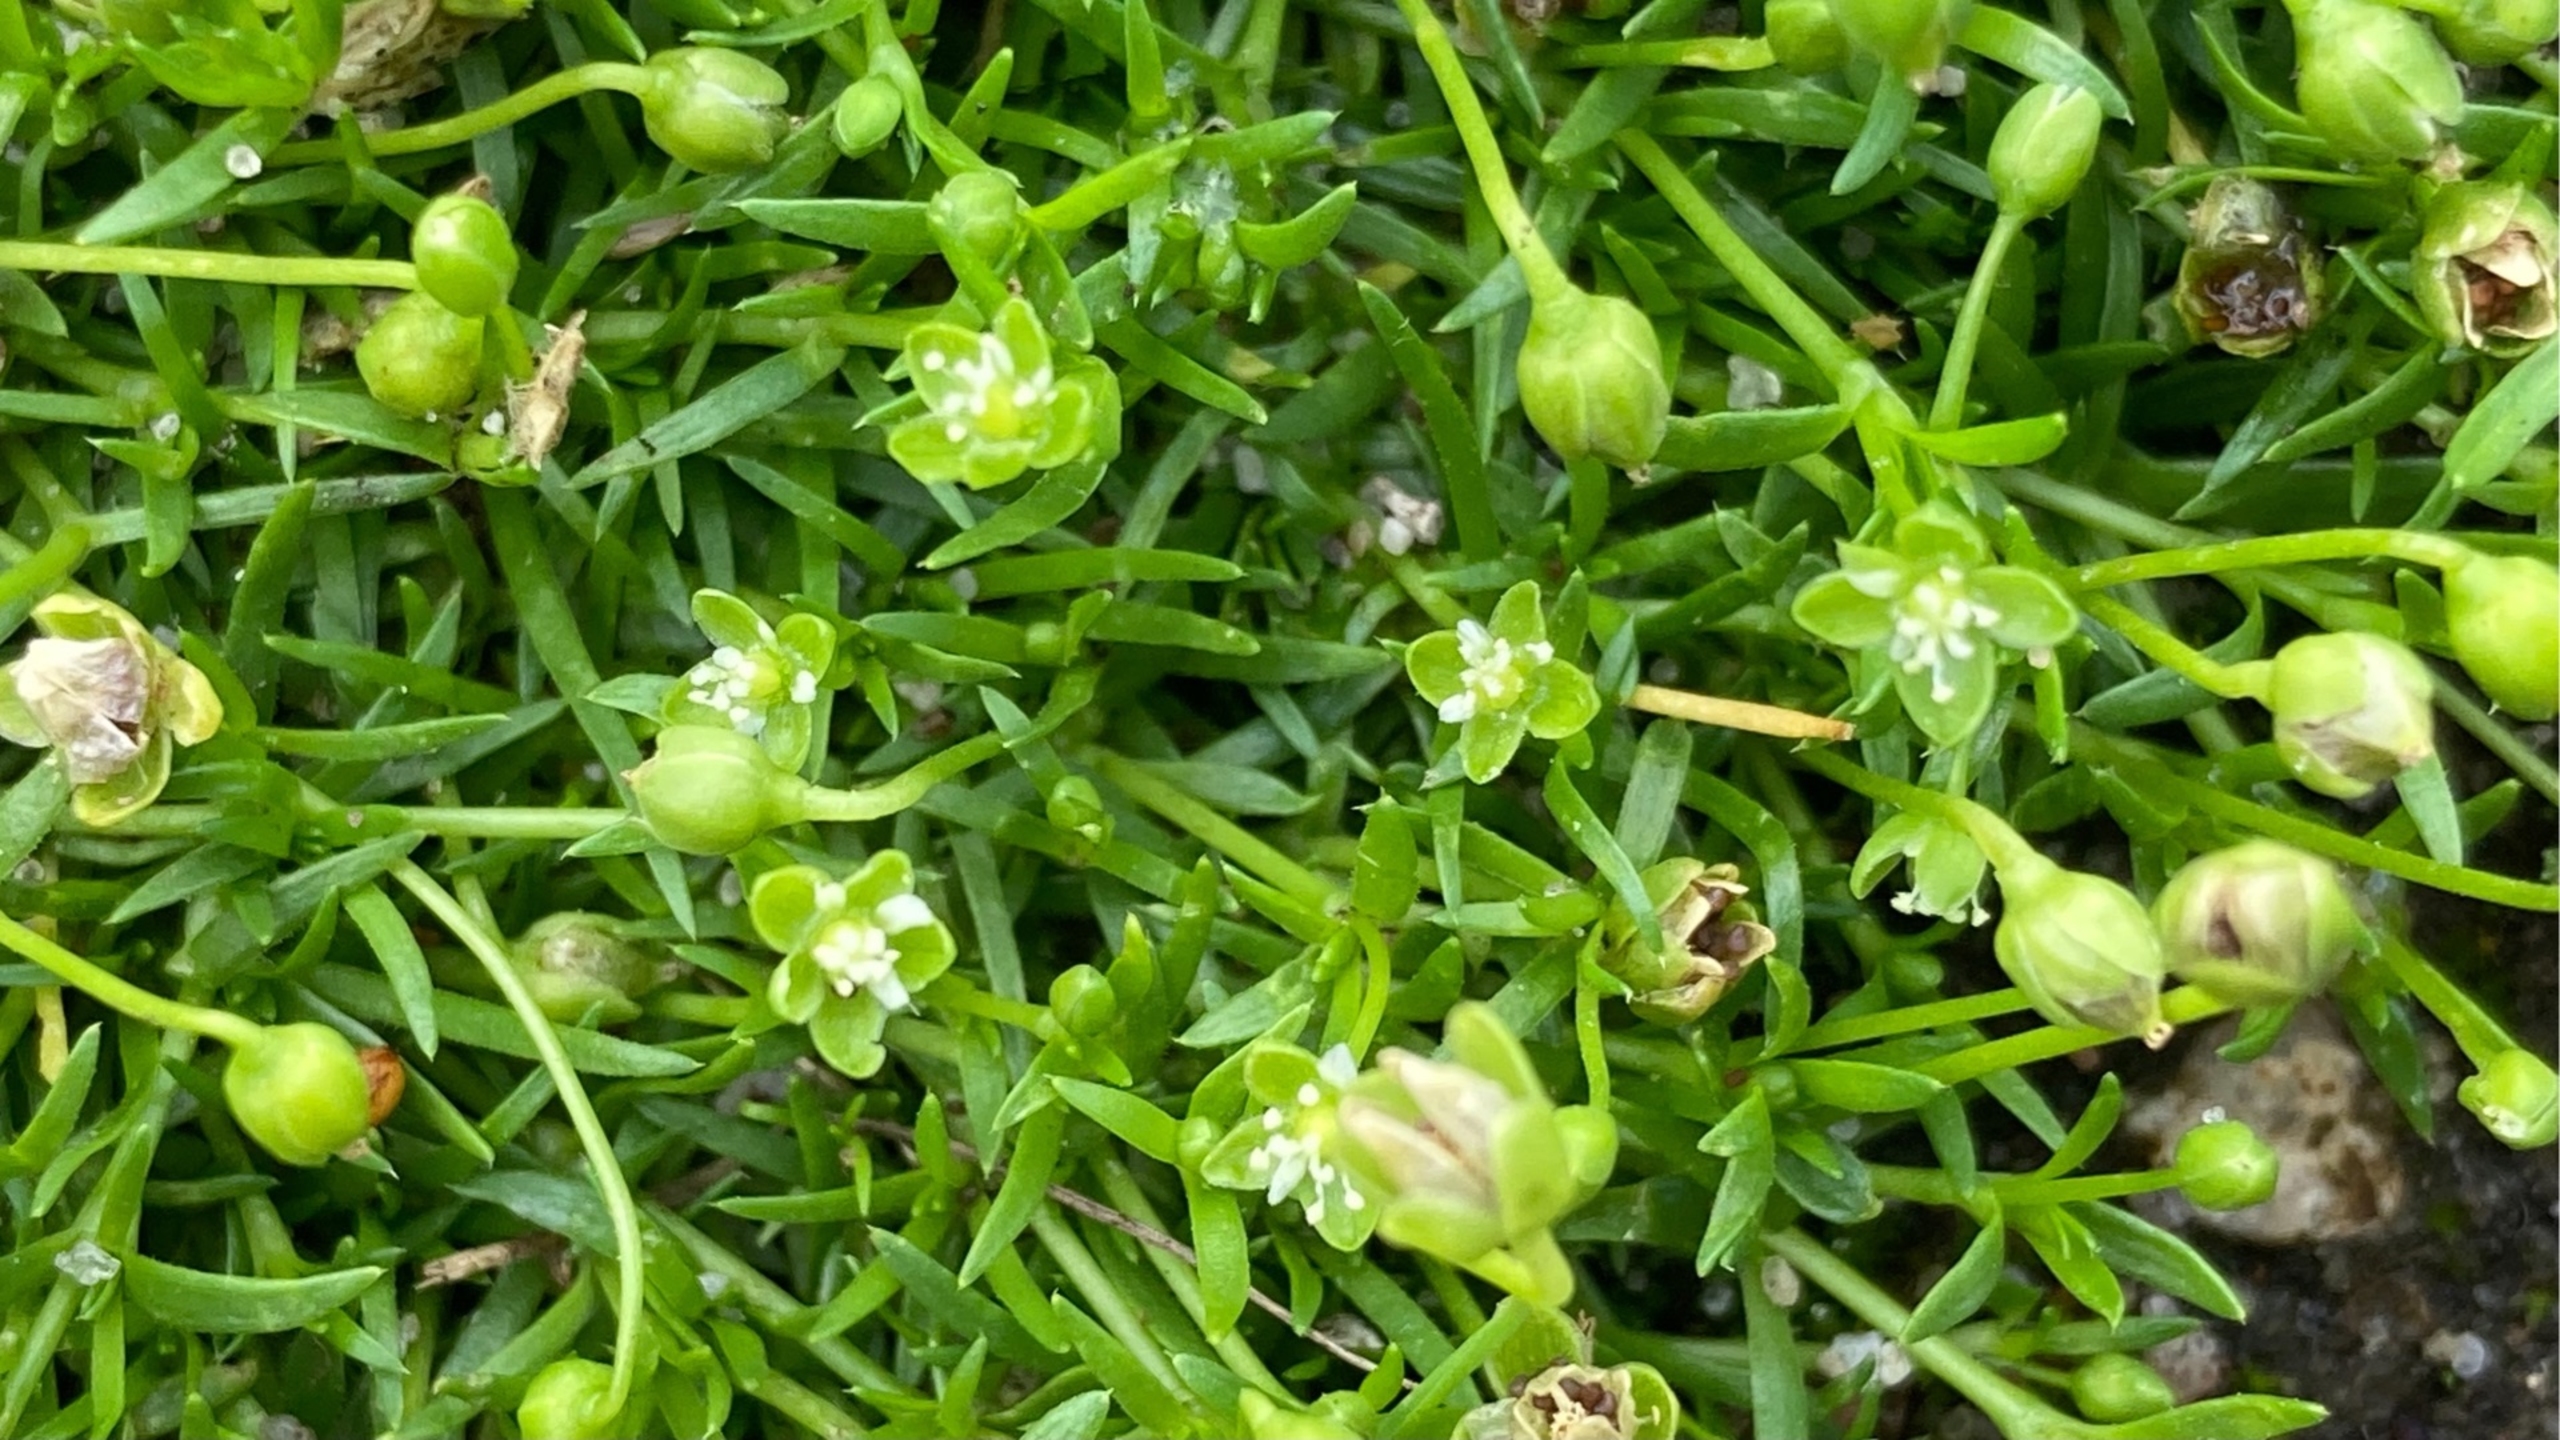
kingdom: Plantae
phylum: Tracheophyta
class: Magnoliopsida
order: Caryophyllales
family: Caryophyllaceae
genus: Sagina
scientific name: Sagina procumbens
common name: Almindelig firling
